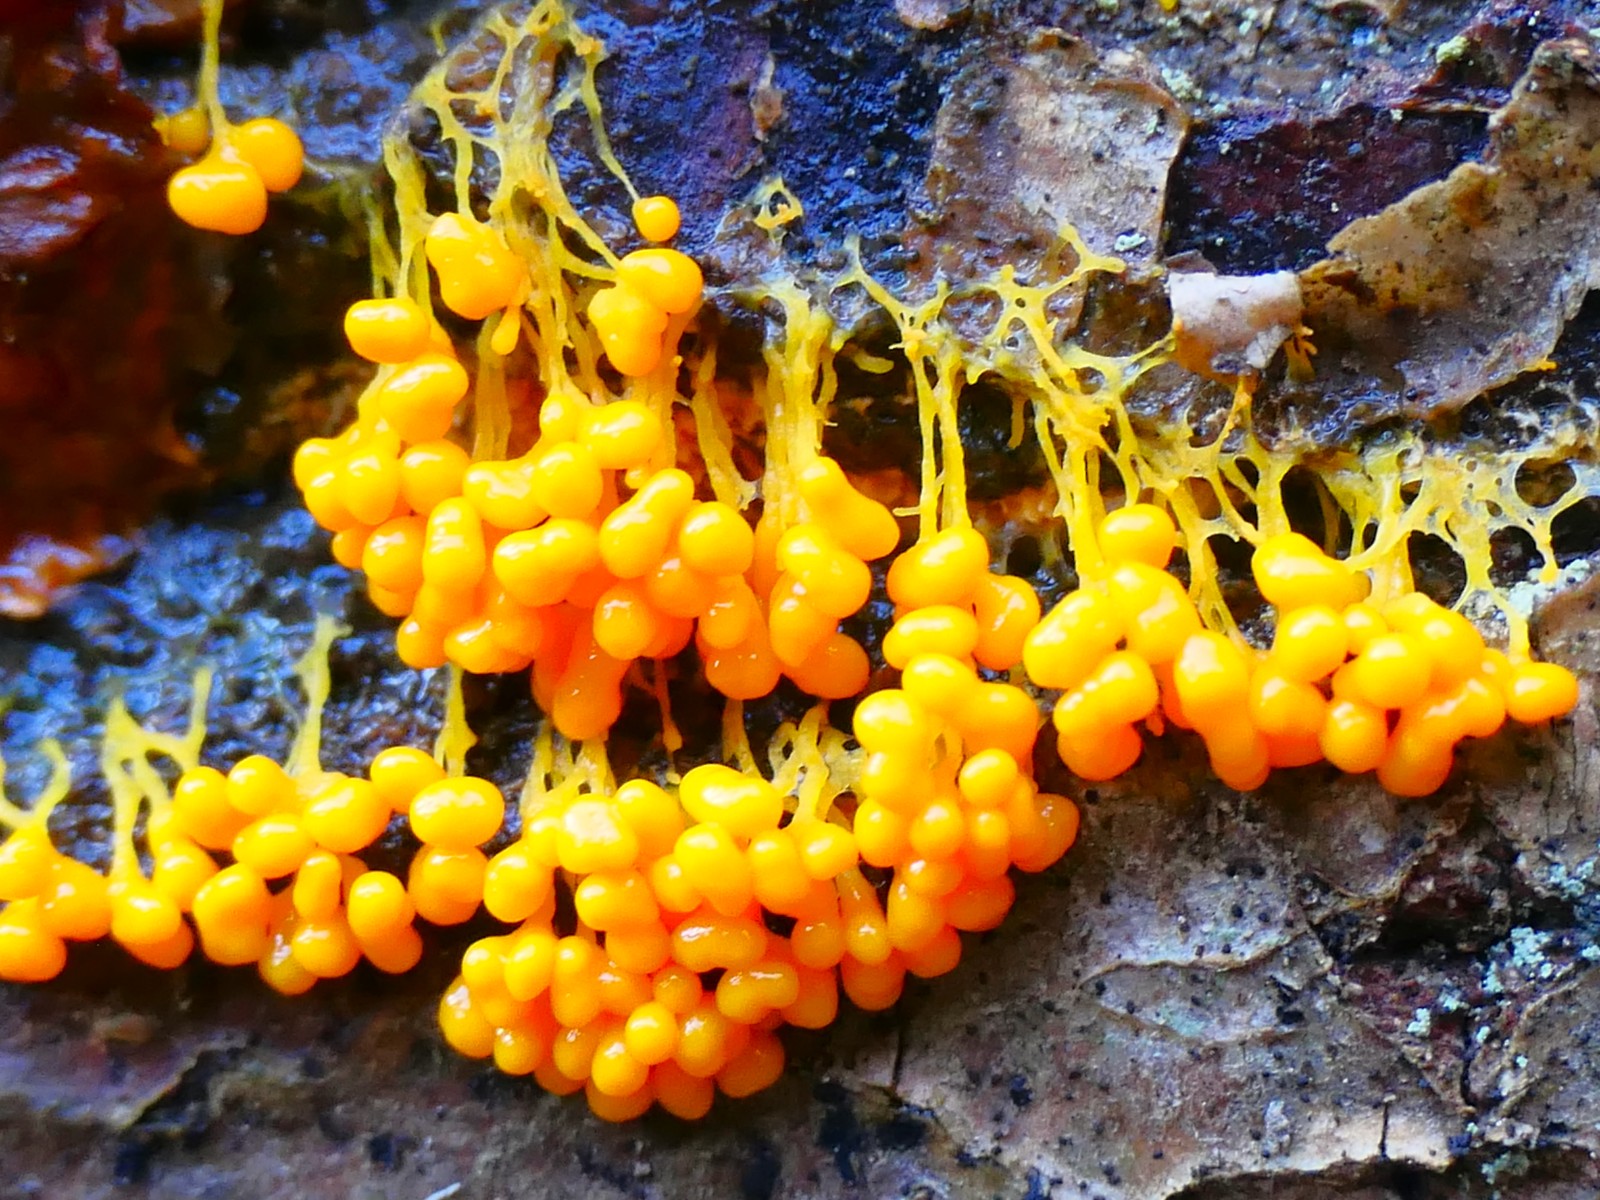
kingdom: Protozoa
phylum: Mycetozoa
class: Myxomycetes
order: Physarales
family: Physaraceae
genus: Badhamia
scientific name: Badhamia utricularis
